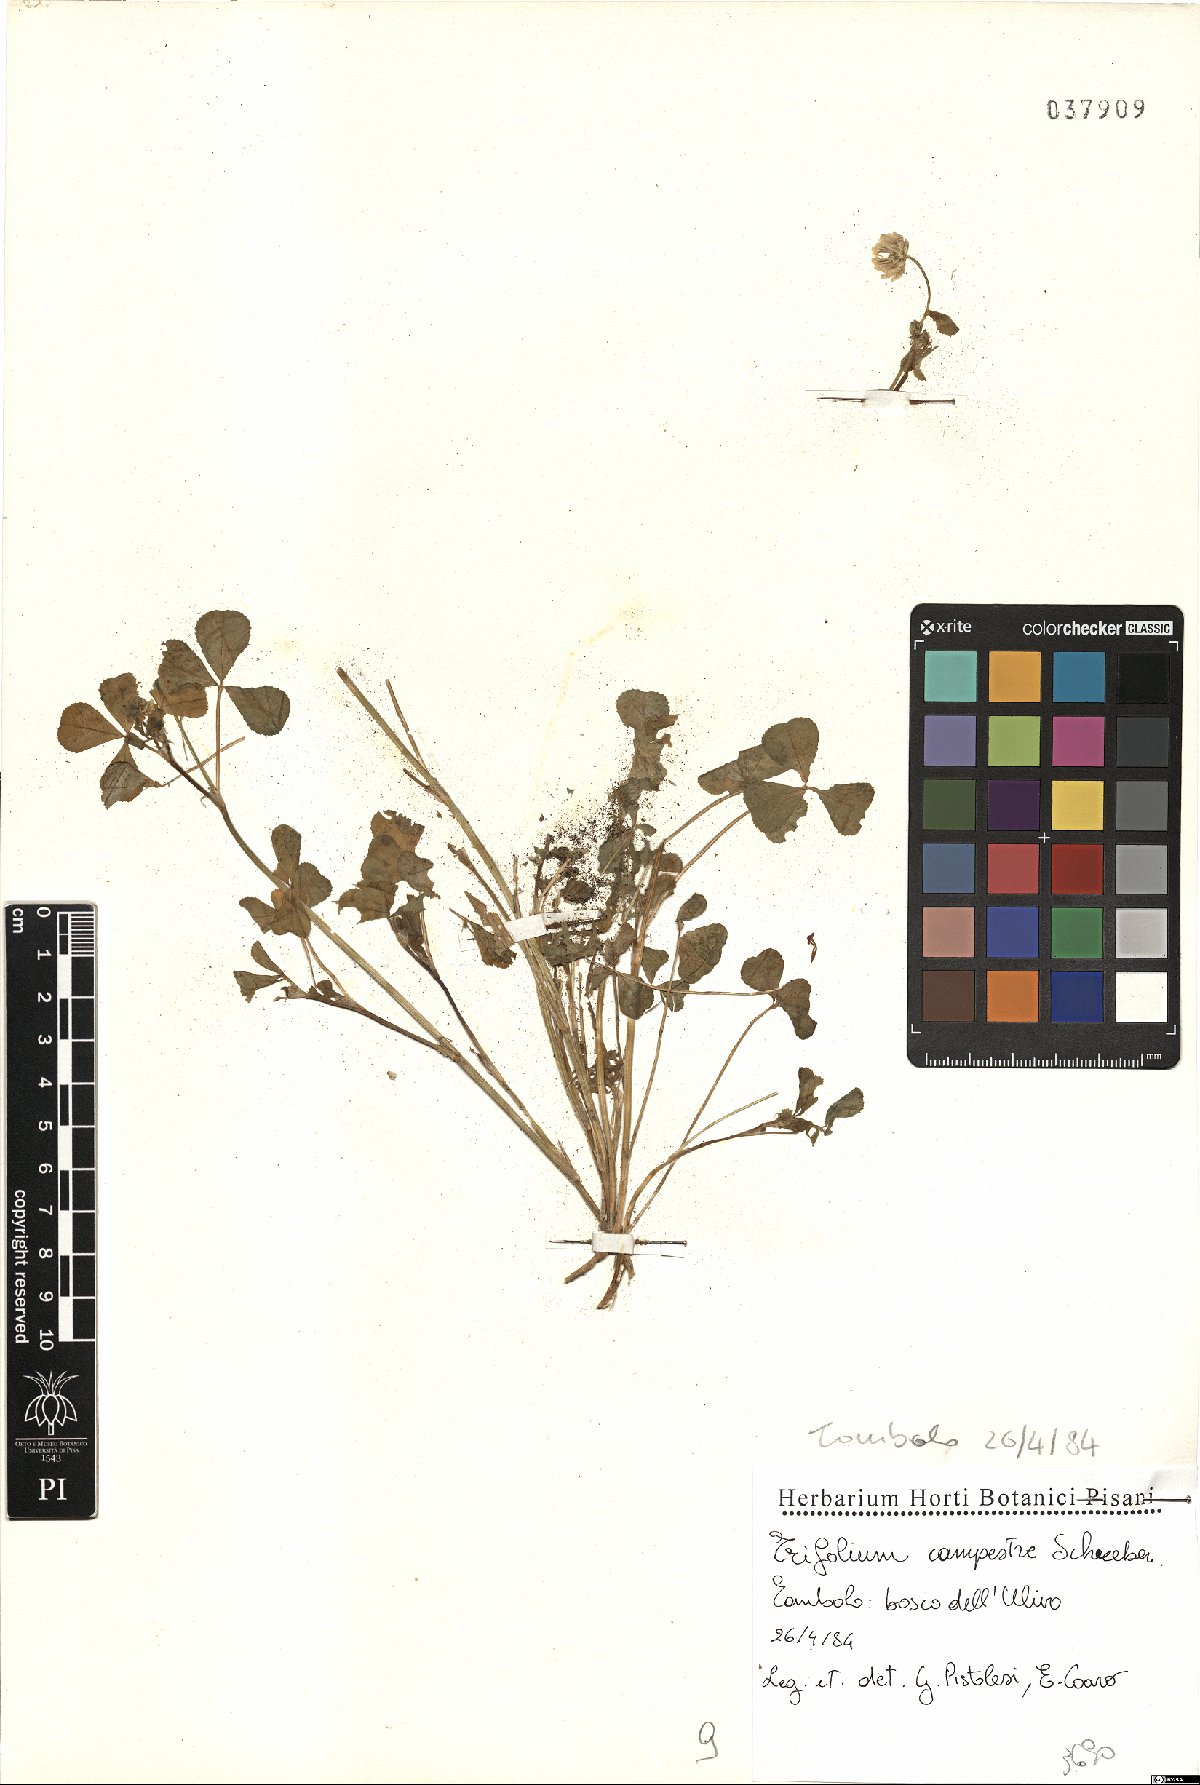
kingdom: Plantae
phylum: Tracheophyta
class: Magnoliopsida
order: Fabales
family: Fabaceae
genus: Trifolium
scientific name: Trifolium campestre
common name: Field clover
